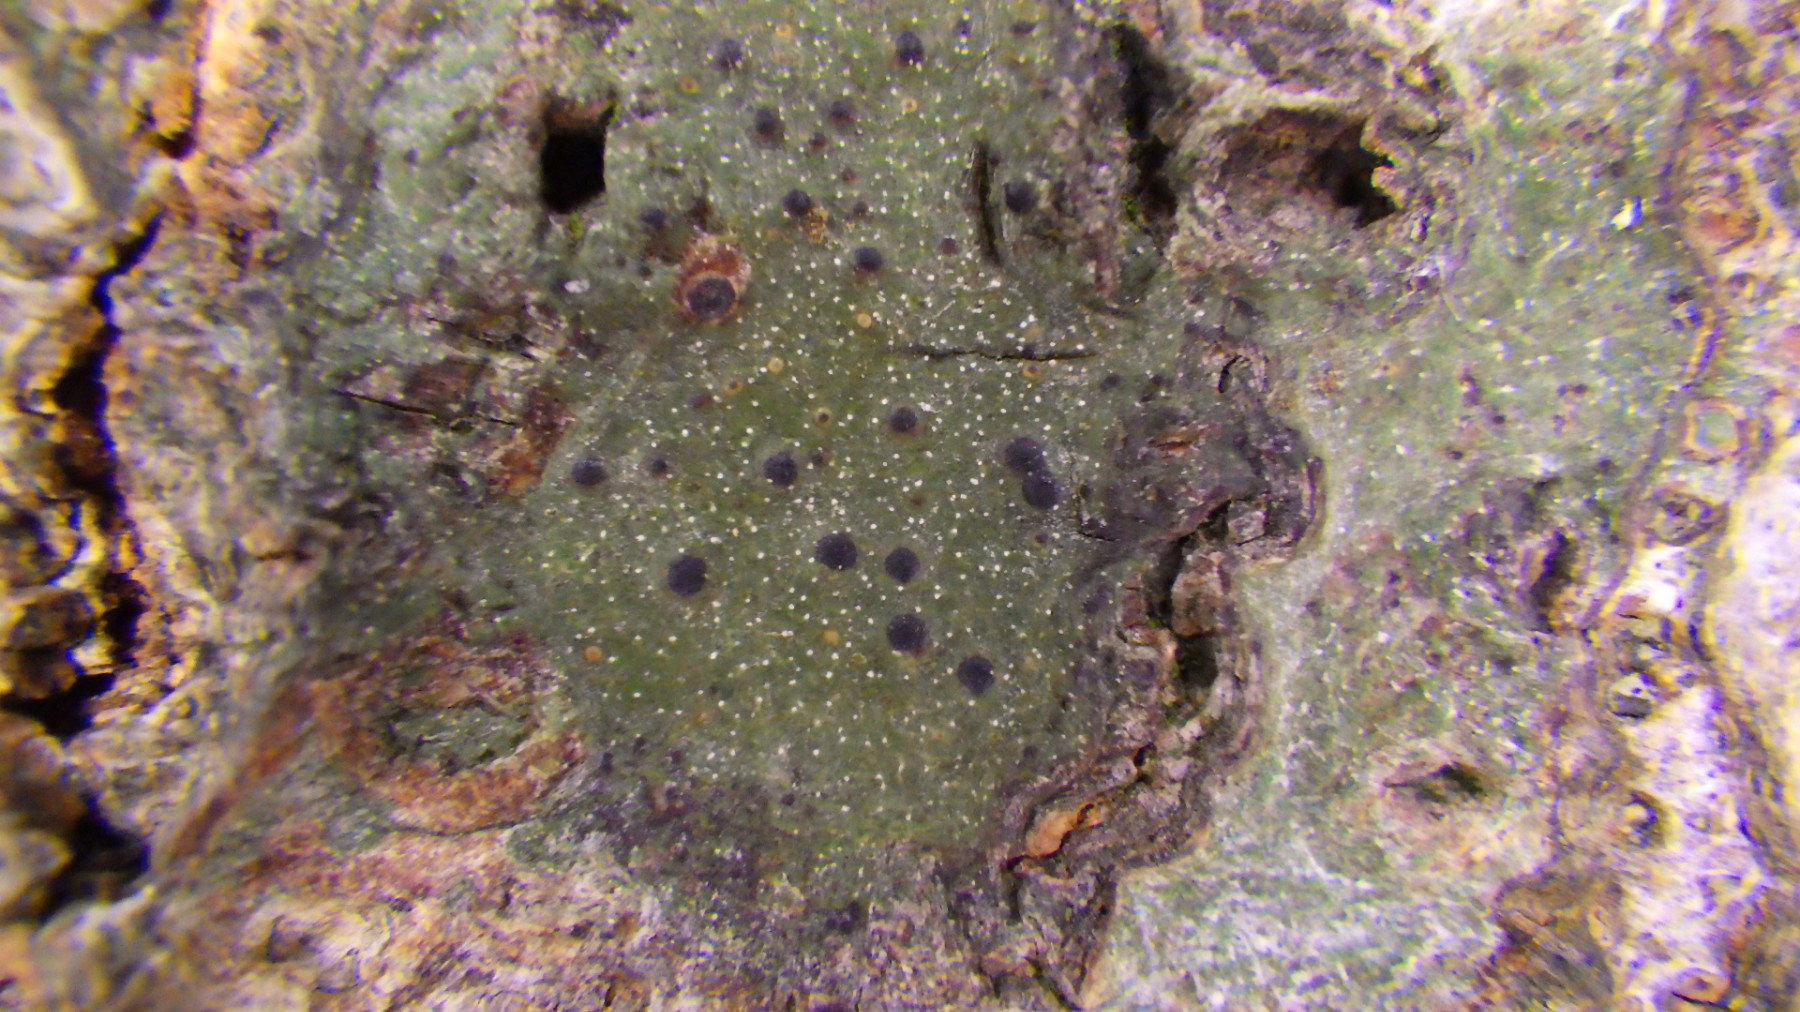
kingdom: Fungi
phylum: Ascomycota
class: Eurotiomycetes
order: Pyrenulales
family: Pyrenulaceae
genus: Pyrenula
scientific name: Pyrenula nitida
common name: glinsende kernelav
